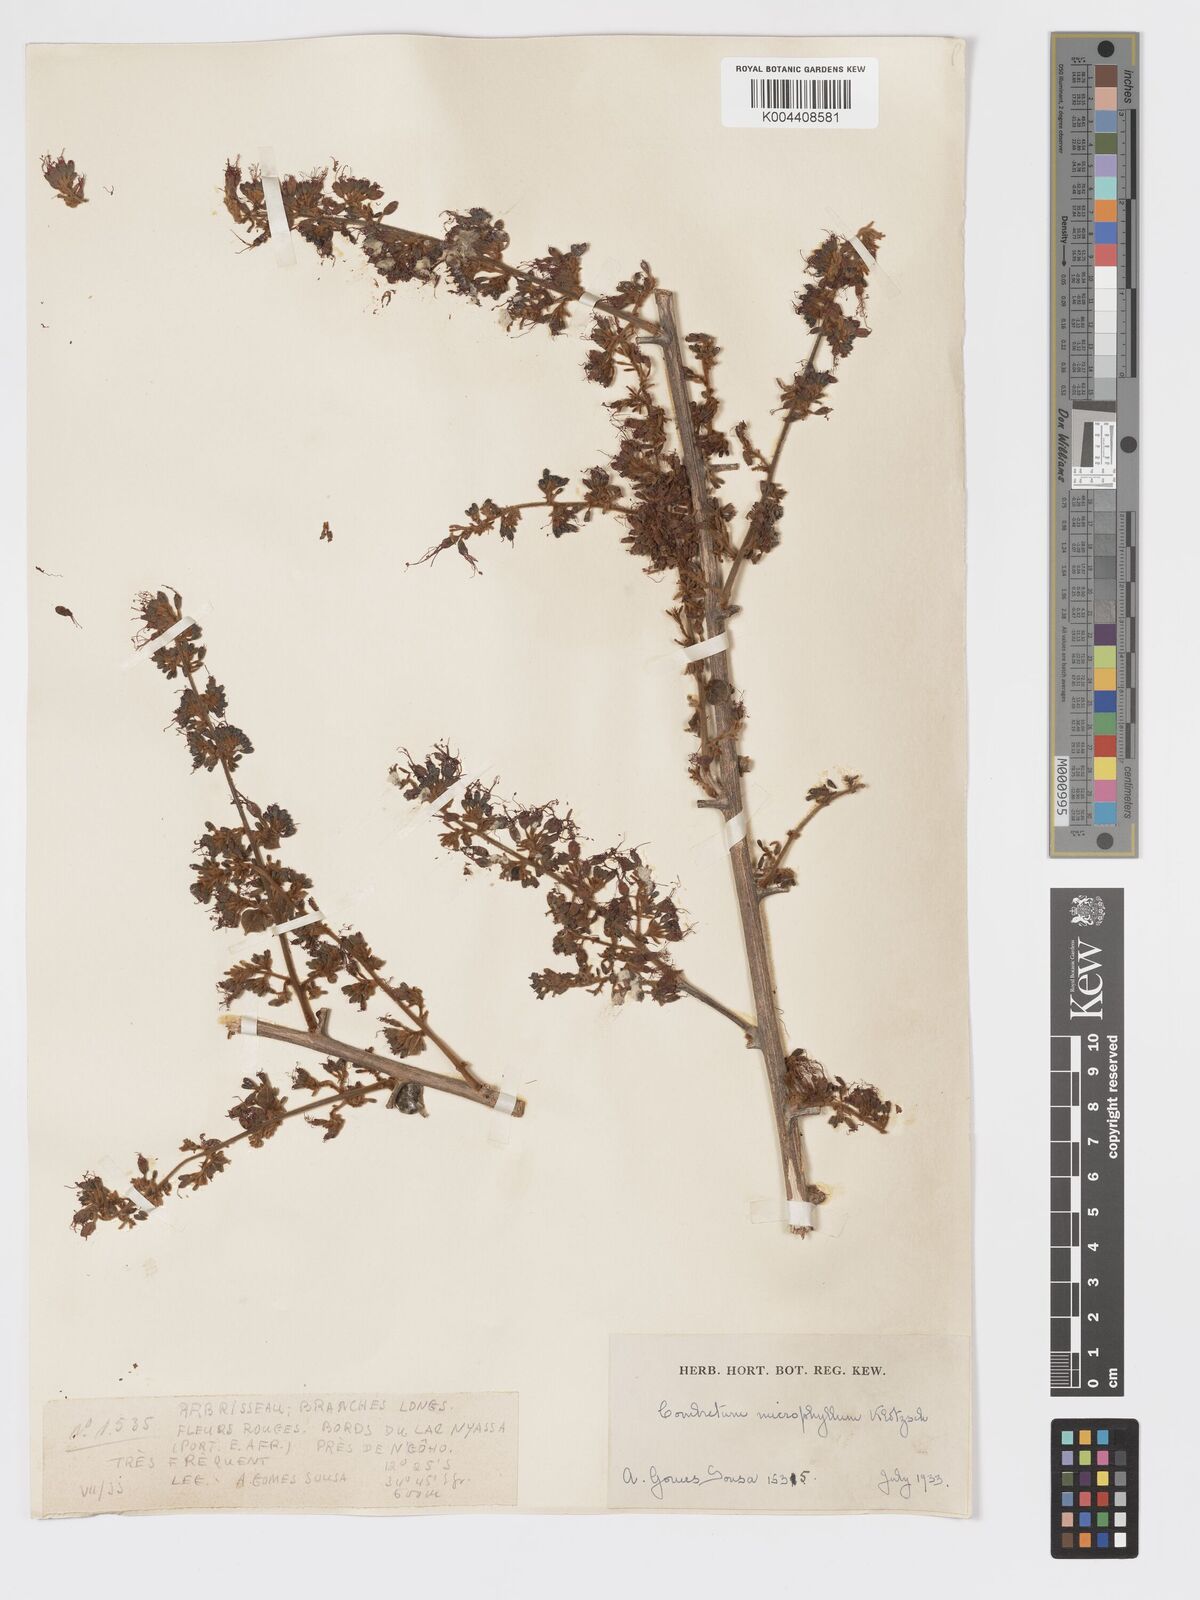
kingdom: Plantae
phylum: Tracheophyta
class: Magnoliopsida
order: Myrtales
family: Combretaceae
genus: Combretum
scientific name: Combretum microphyllum
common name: Burningbush
